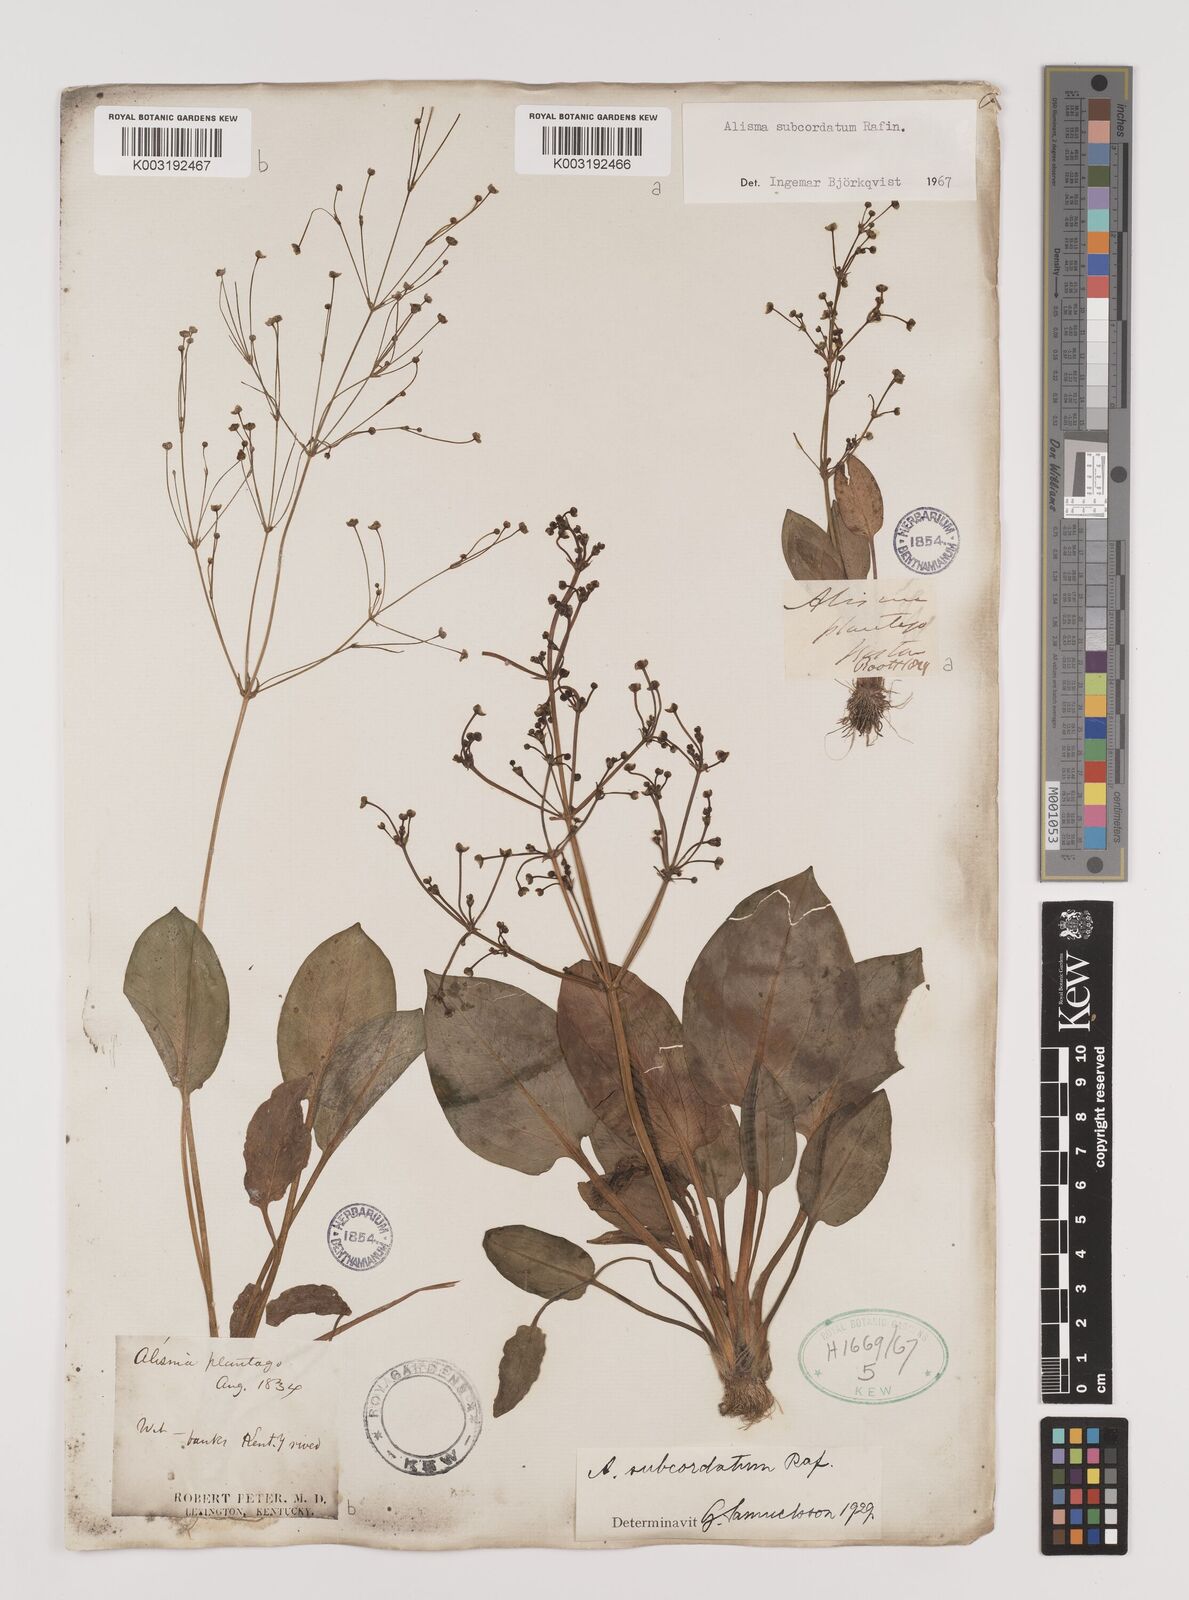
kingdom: Plantae
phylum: Tracheophyta
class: Liliopsida
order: Alismatales
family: Alismataceae
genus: Alisma
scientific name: Alisma subcordatum
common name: Southern water-plantain
